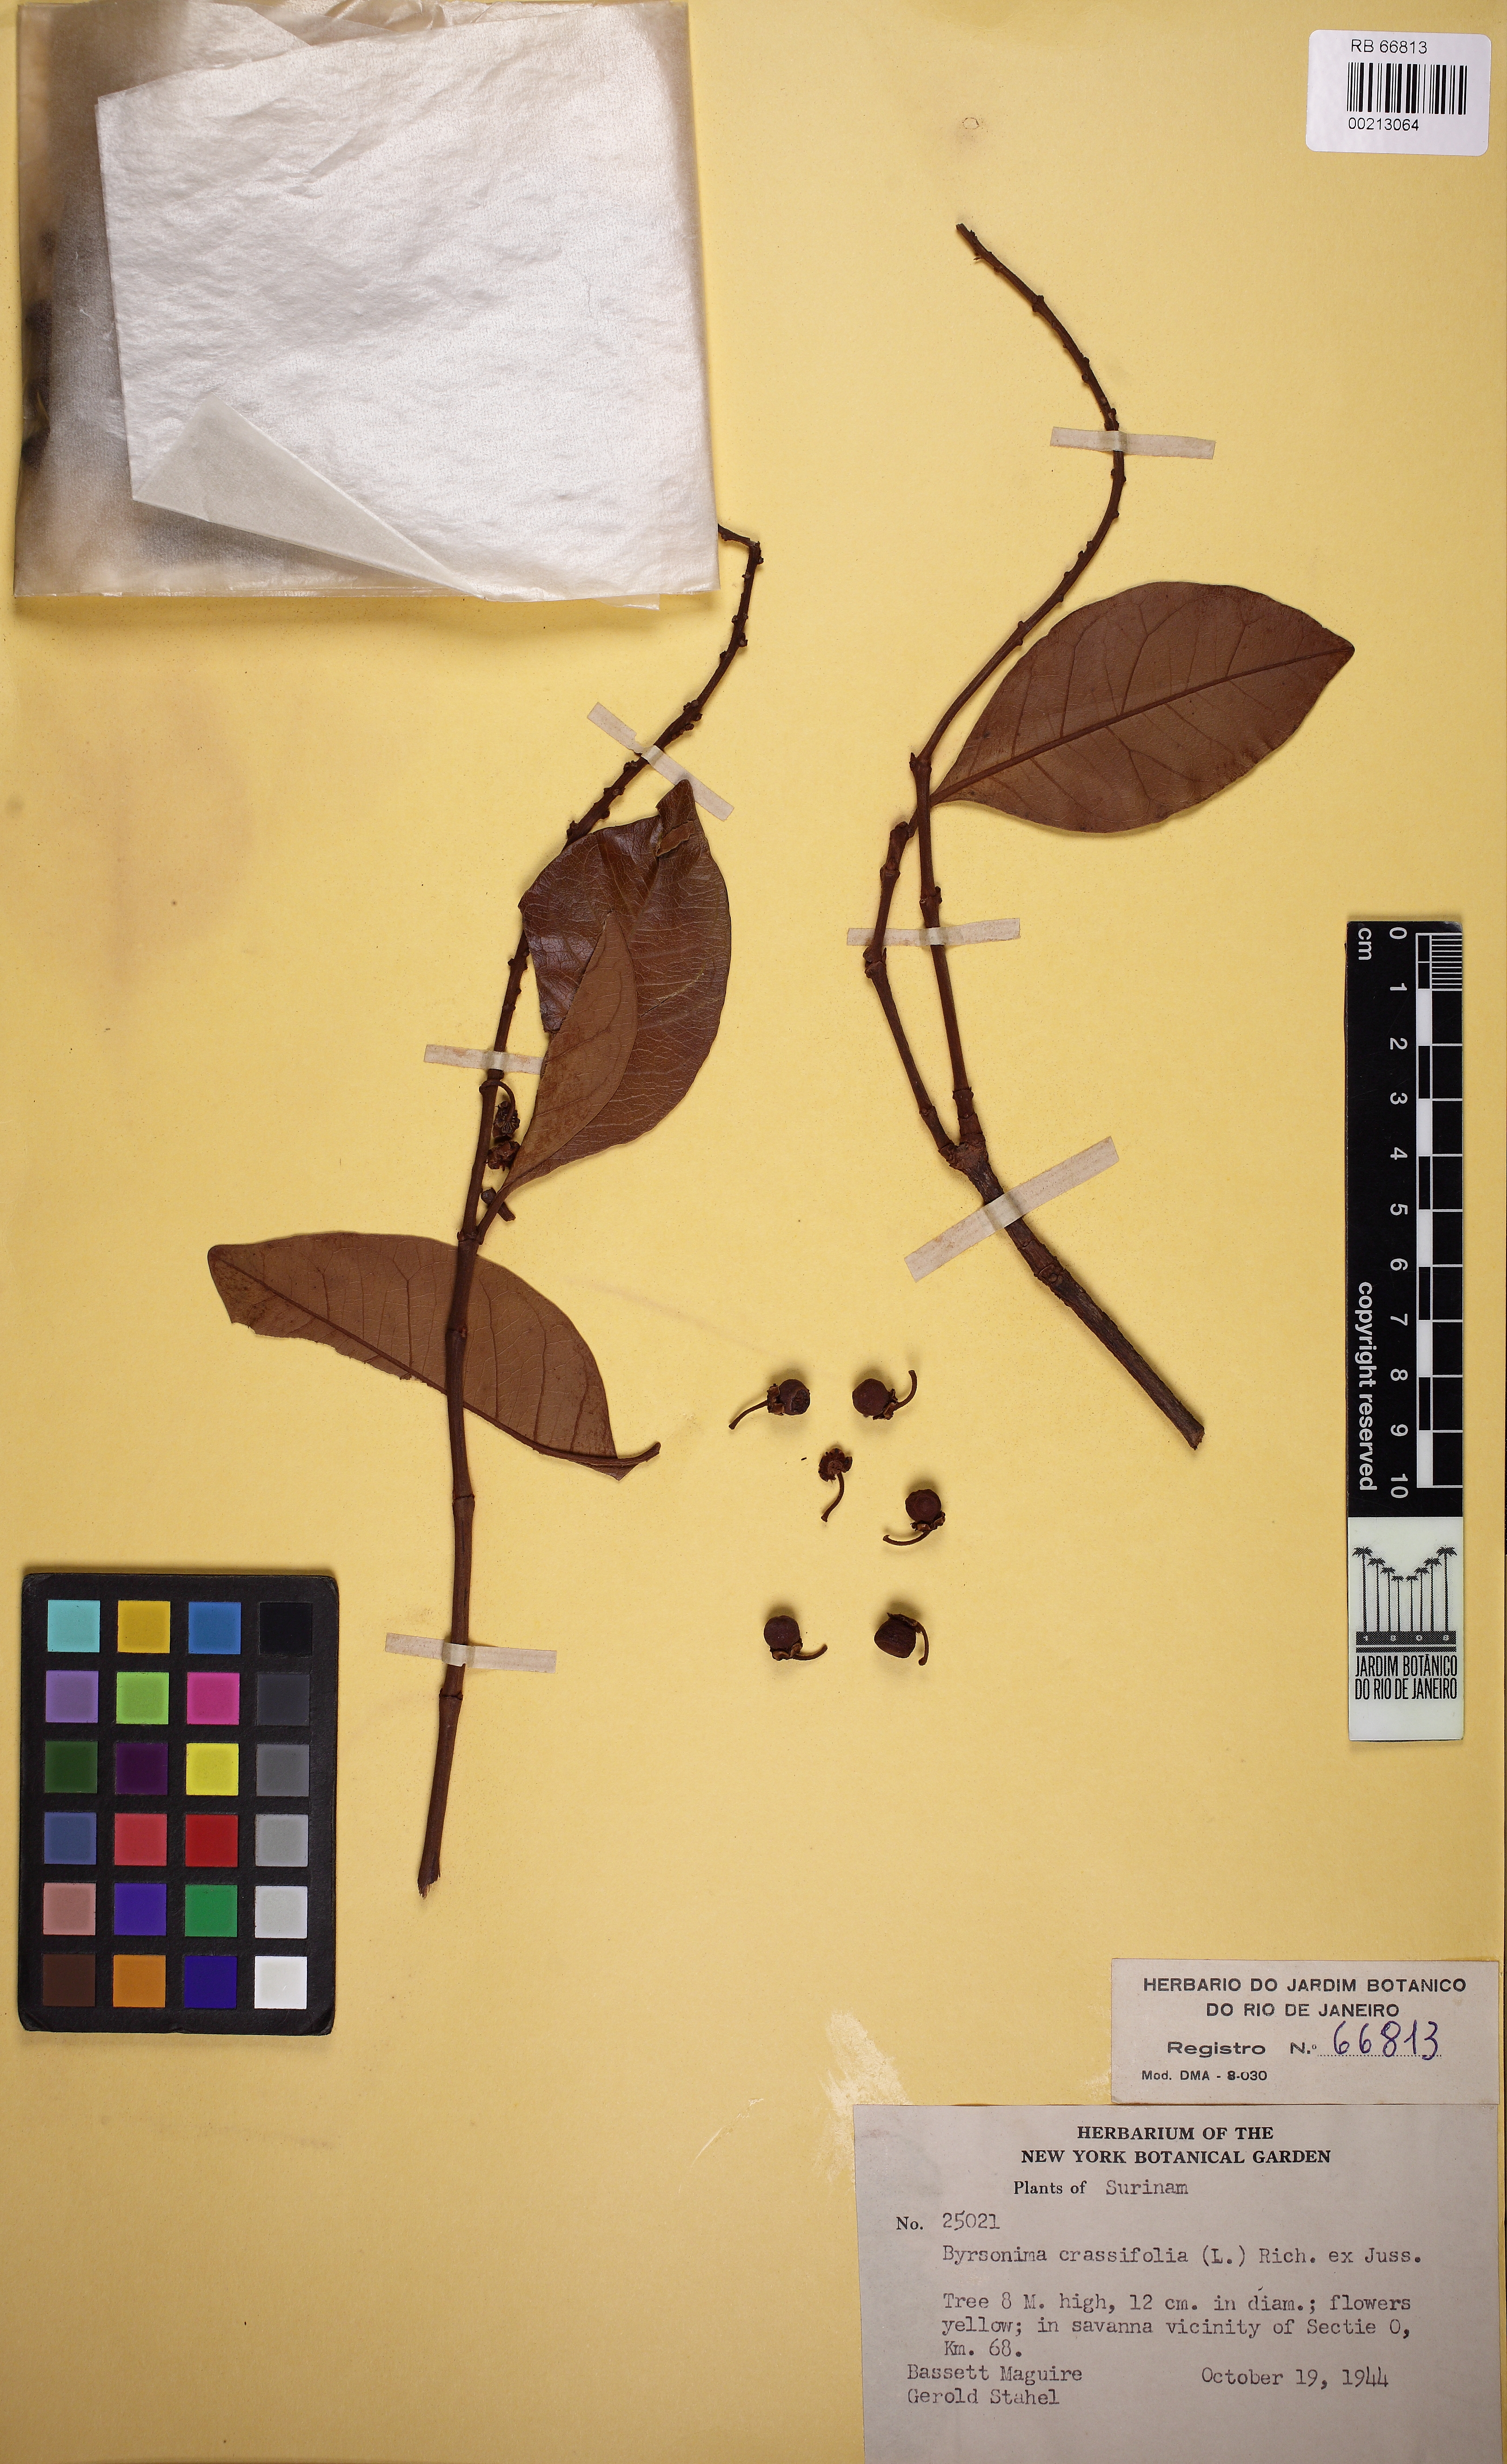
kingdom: Plantae
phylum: Tracheophyta
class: Magnoliopsida
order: Malpighiales
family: Malpighiaceae
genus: Byrsonima
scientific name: Byrsonima crassifolia
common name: Golden spoon
